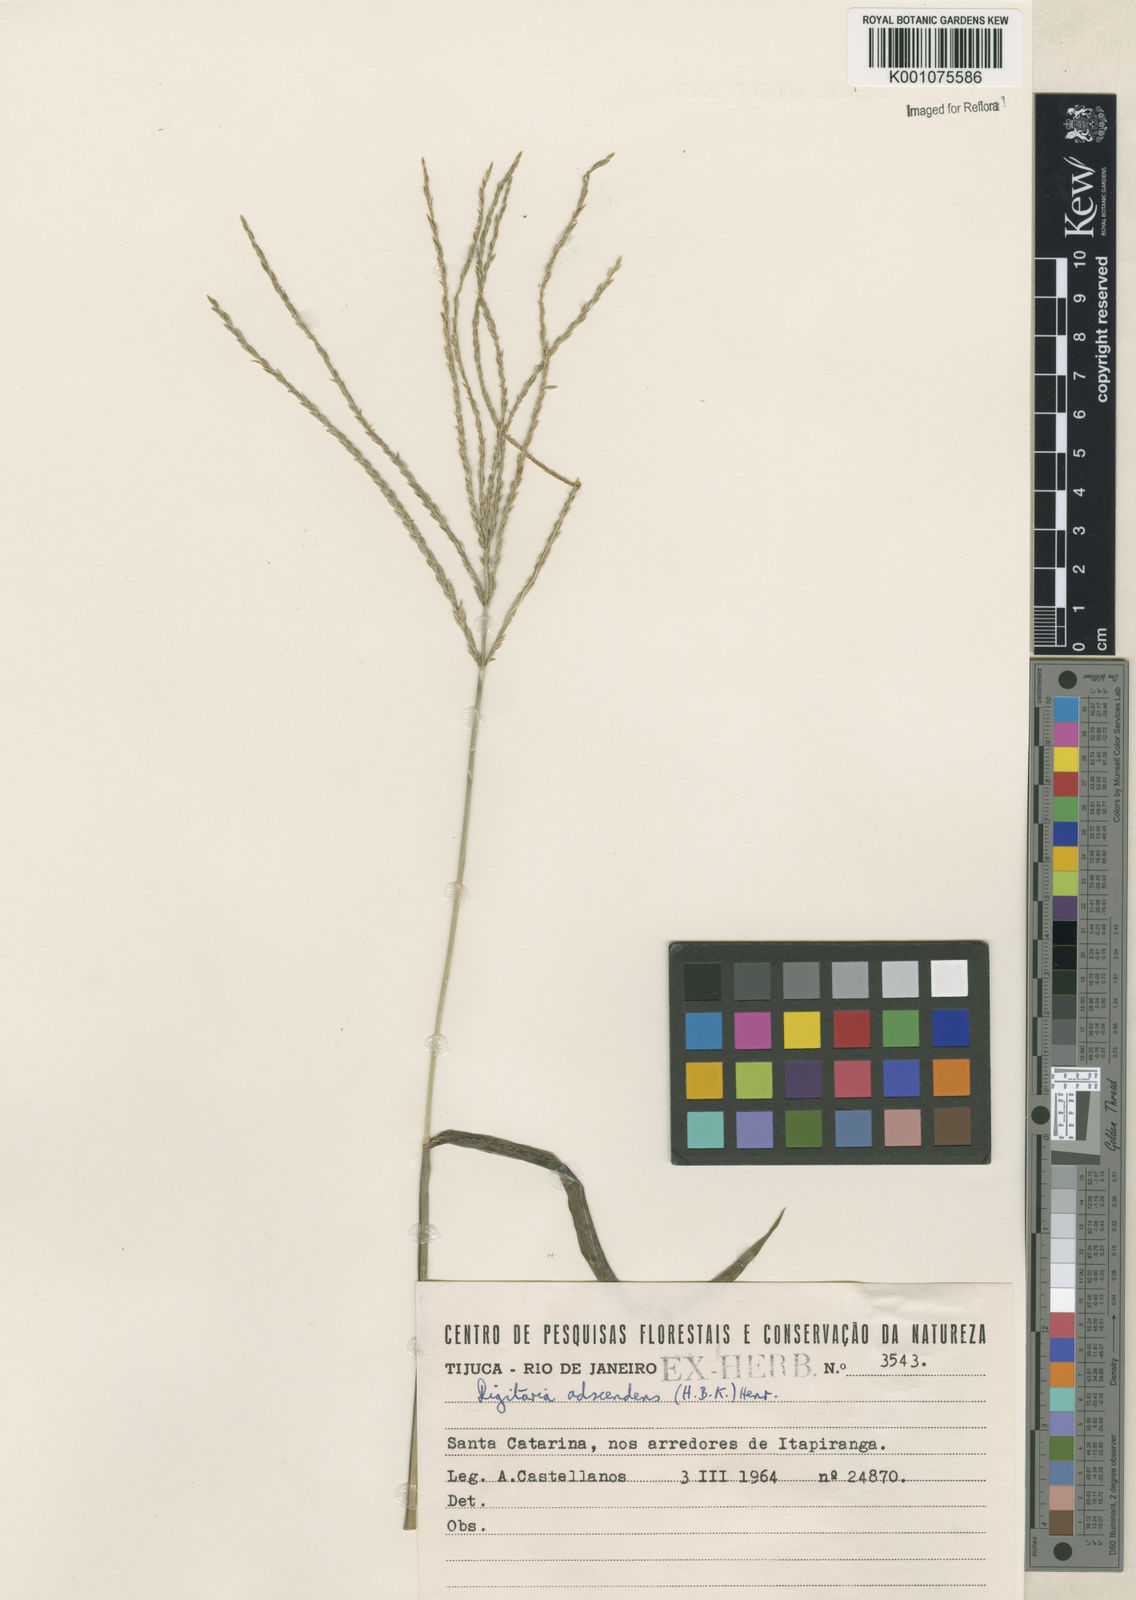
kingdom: Plantae
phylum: Tracheophyta
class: Liliopsida
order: Poales
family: Poaceae
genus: Digitaria
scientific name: Digitaria ciliaris
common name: Tropical finger-grass
